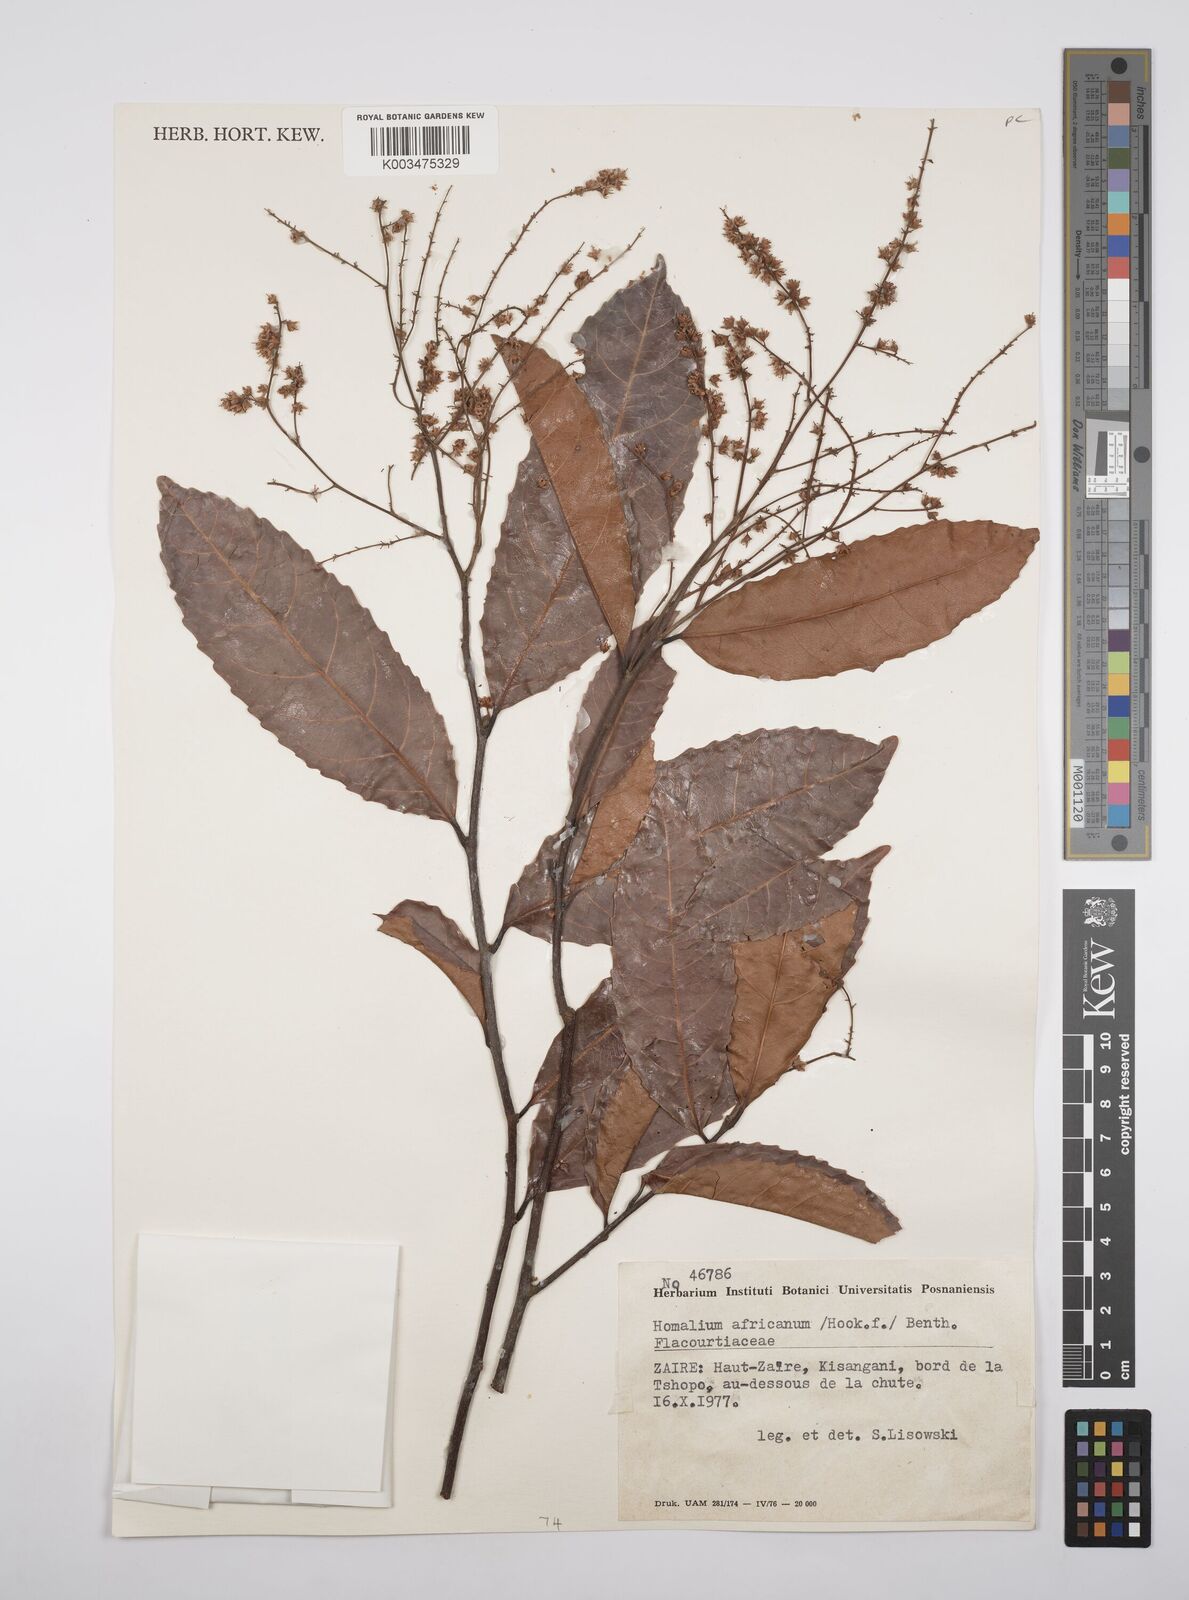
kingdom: Plantae
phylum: Tracheophyta
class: Magnoliopsida
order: Malpighiales
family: Salicaceae
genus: Homalium
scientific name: Homalium africanum
